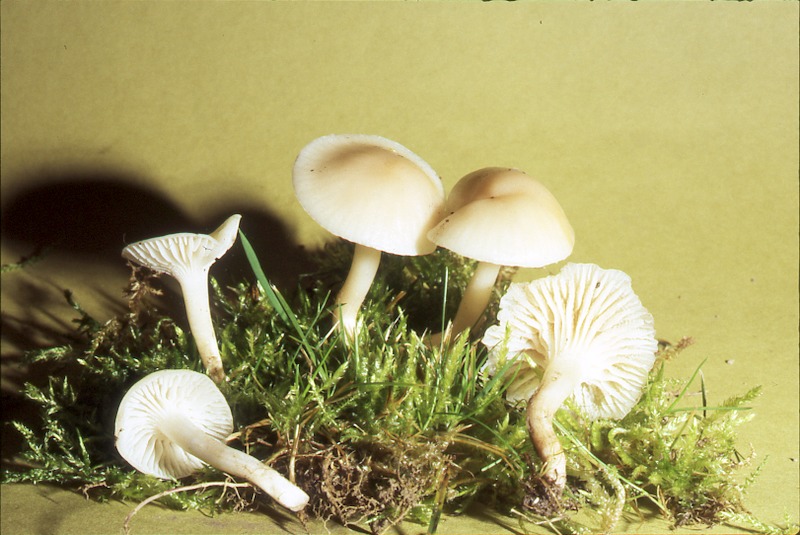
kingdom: Fungi
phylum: Basidiomycota
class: Agaricomycetes
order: Agaricales
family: Hygrophoraceae
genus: Cuphophyllus
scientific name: Cuphophyllus virgineus
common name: Snowy waxcap
